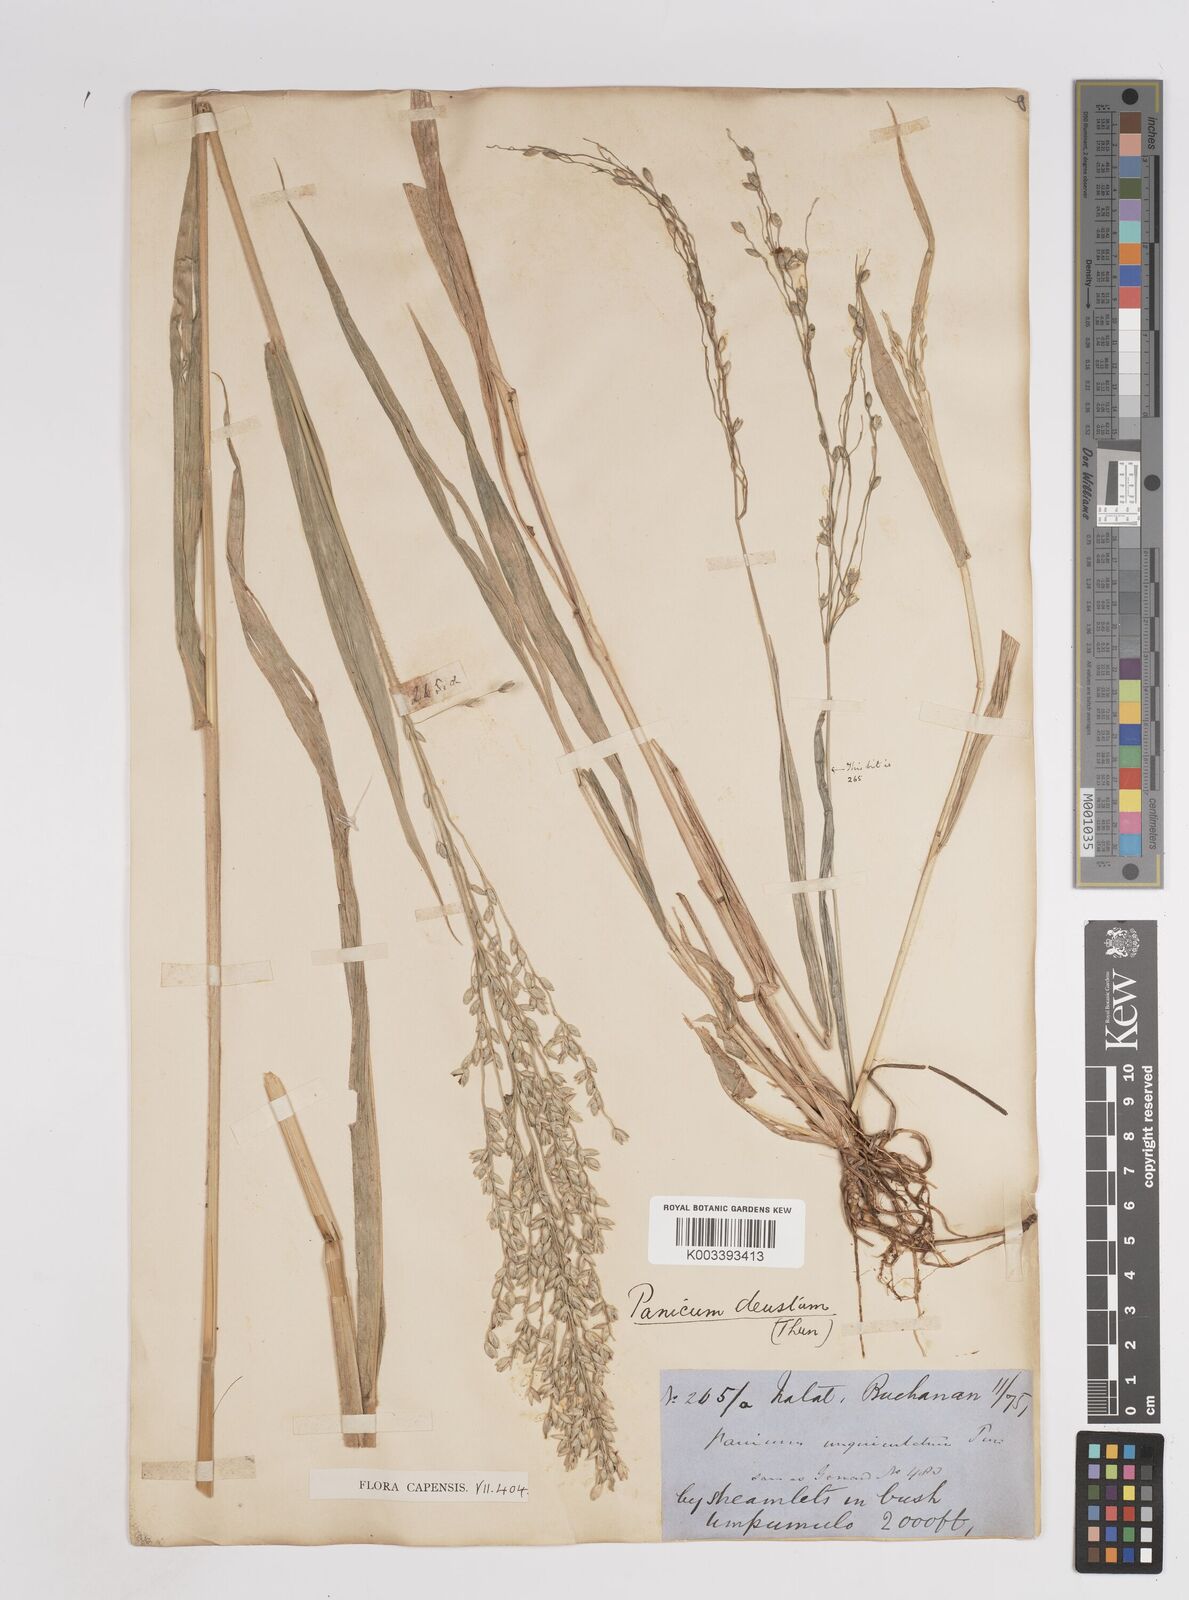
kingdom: Plantae
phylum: Tracheophyta
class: Liliopsida
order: Poales
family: Poaceae
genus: Panicum
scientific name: Panicum deustum
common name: Reed panicum
